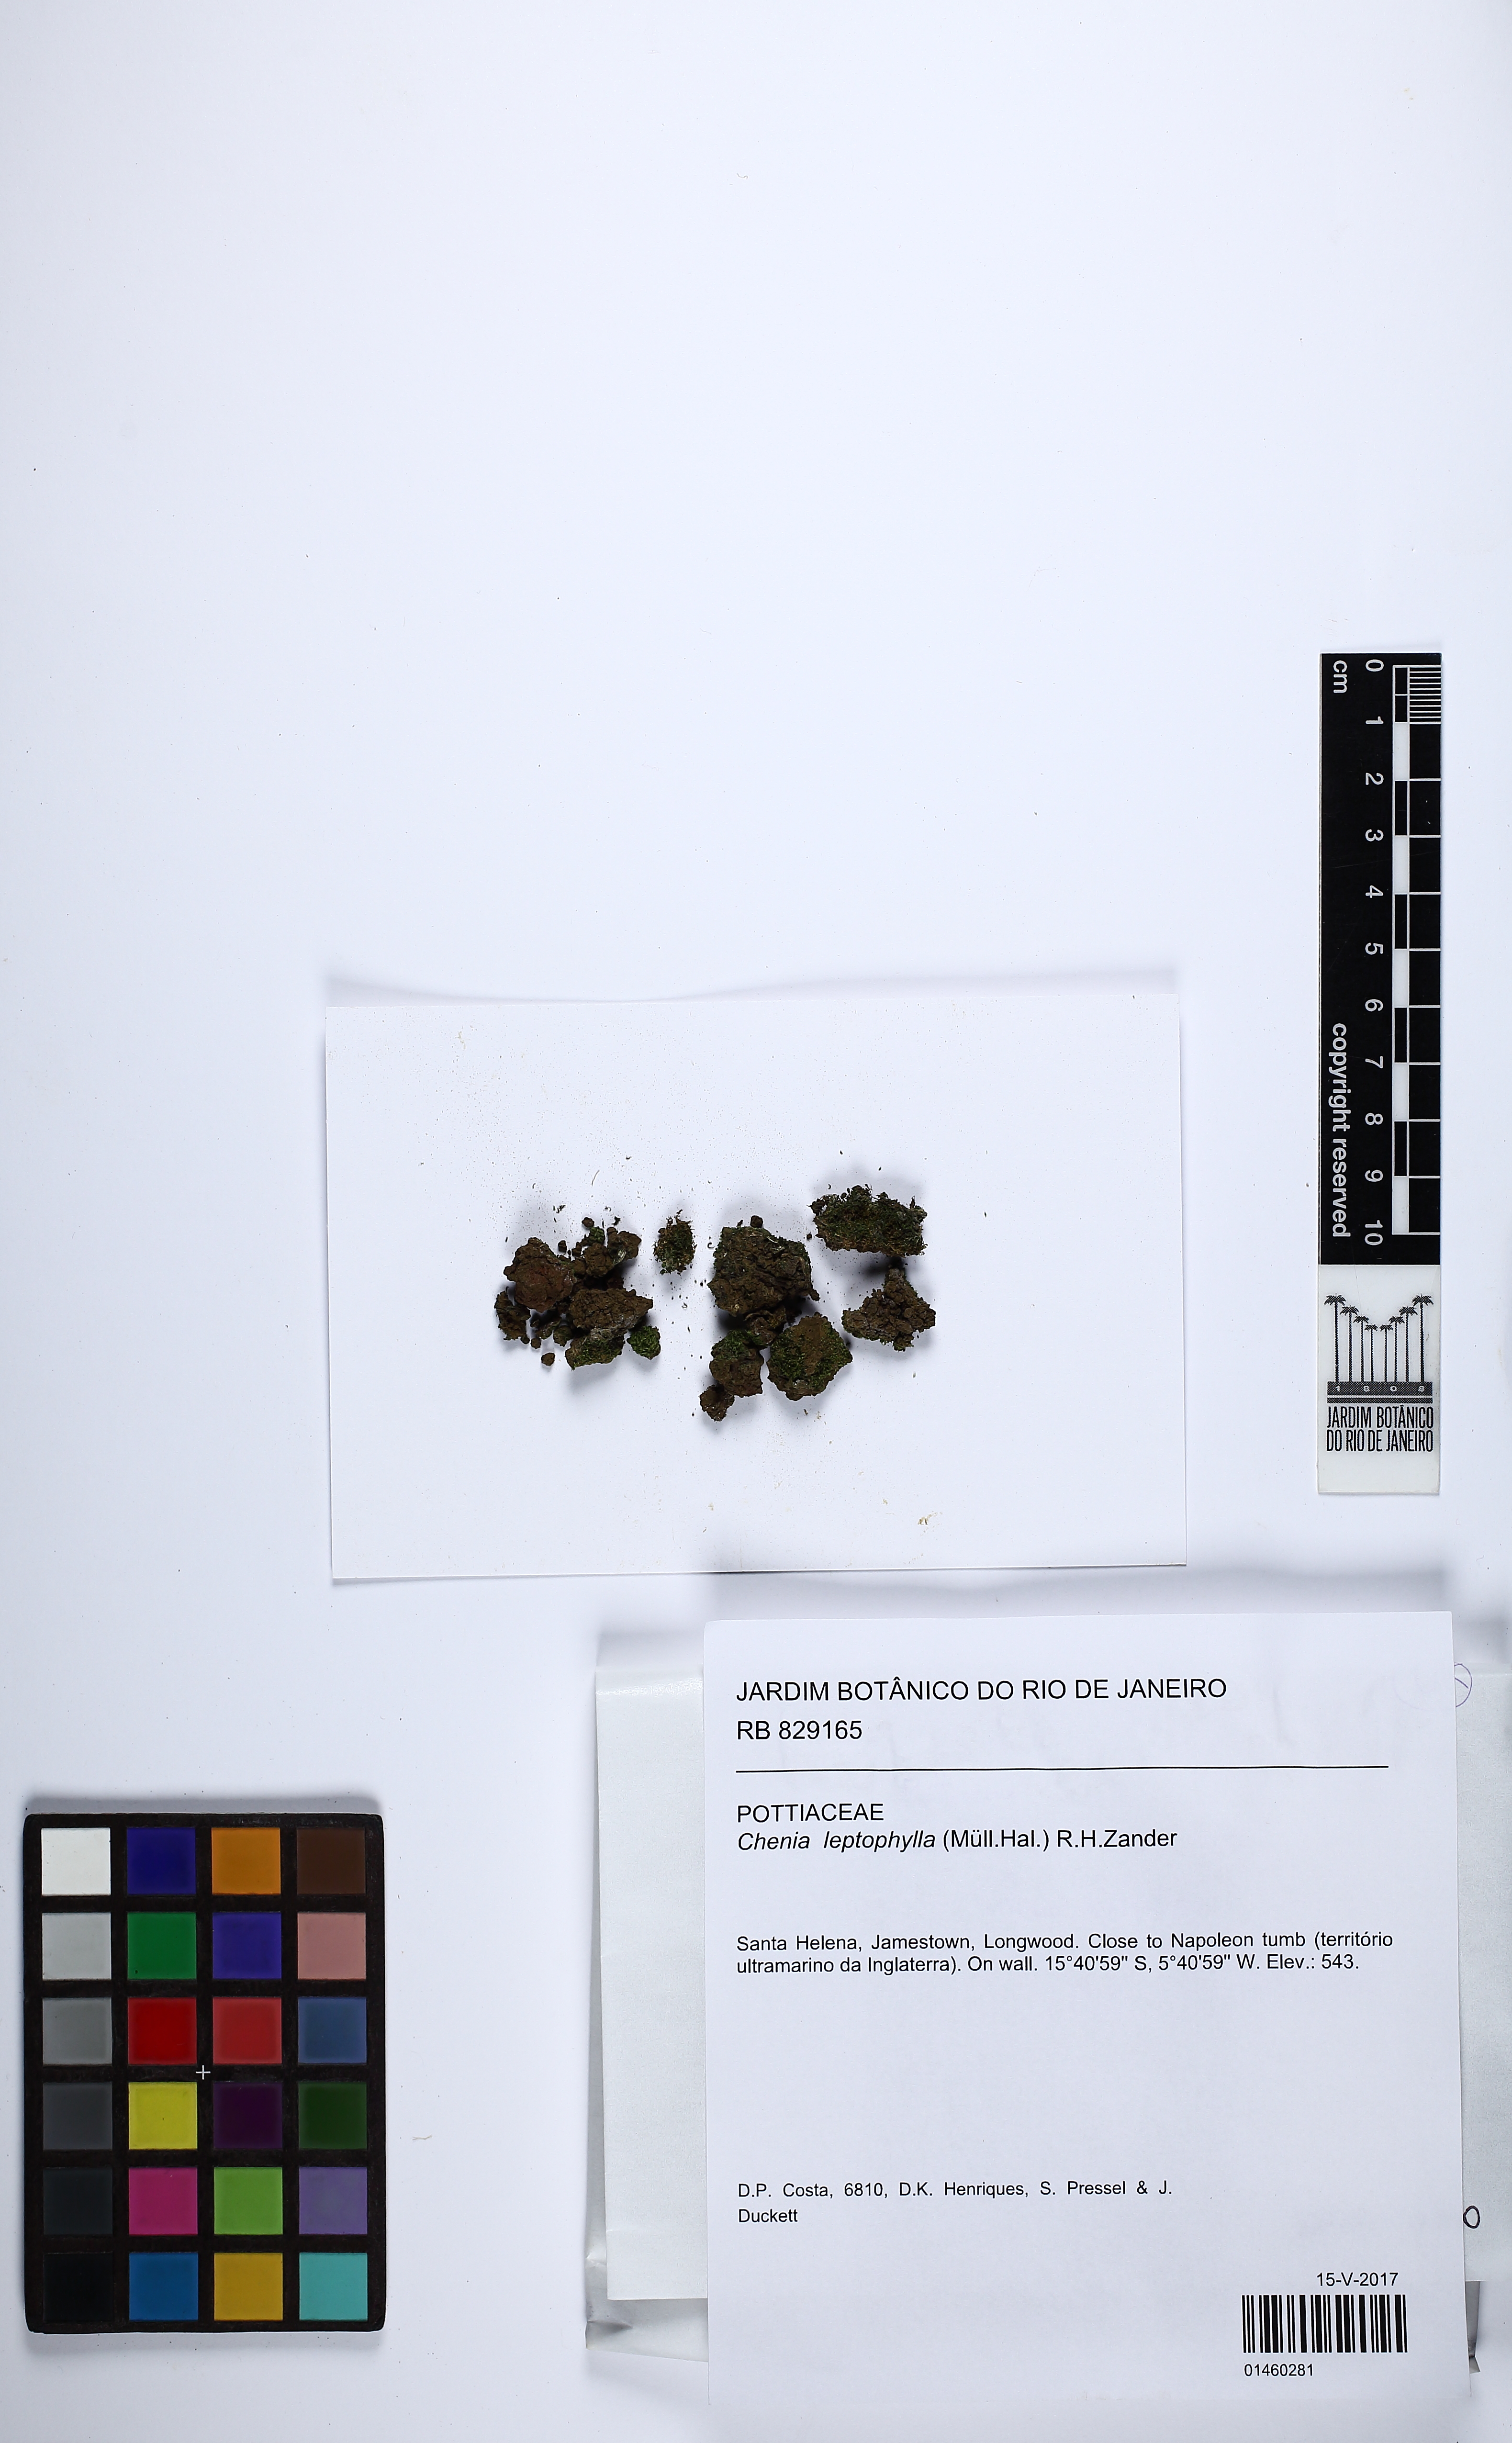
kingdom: Plantae
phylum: Bryophyta
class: Bryopsida
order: Pottiales
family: Pottiaceae
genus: Chenia
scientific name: Chenia leptophylla
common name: Vectis moss
